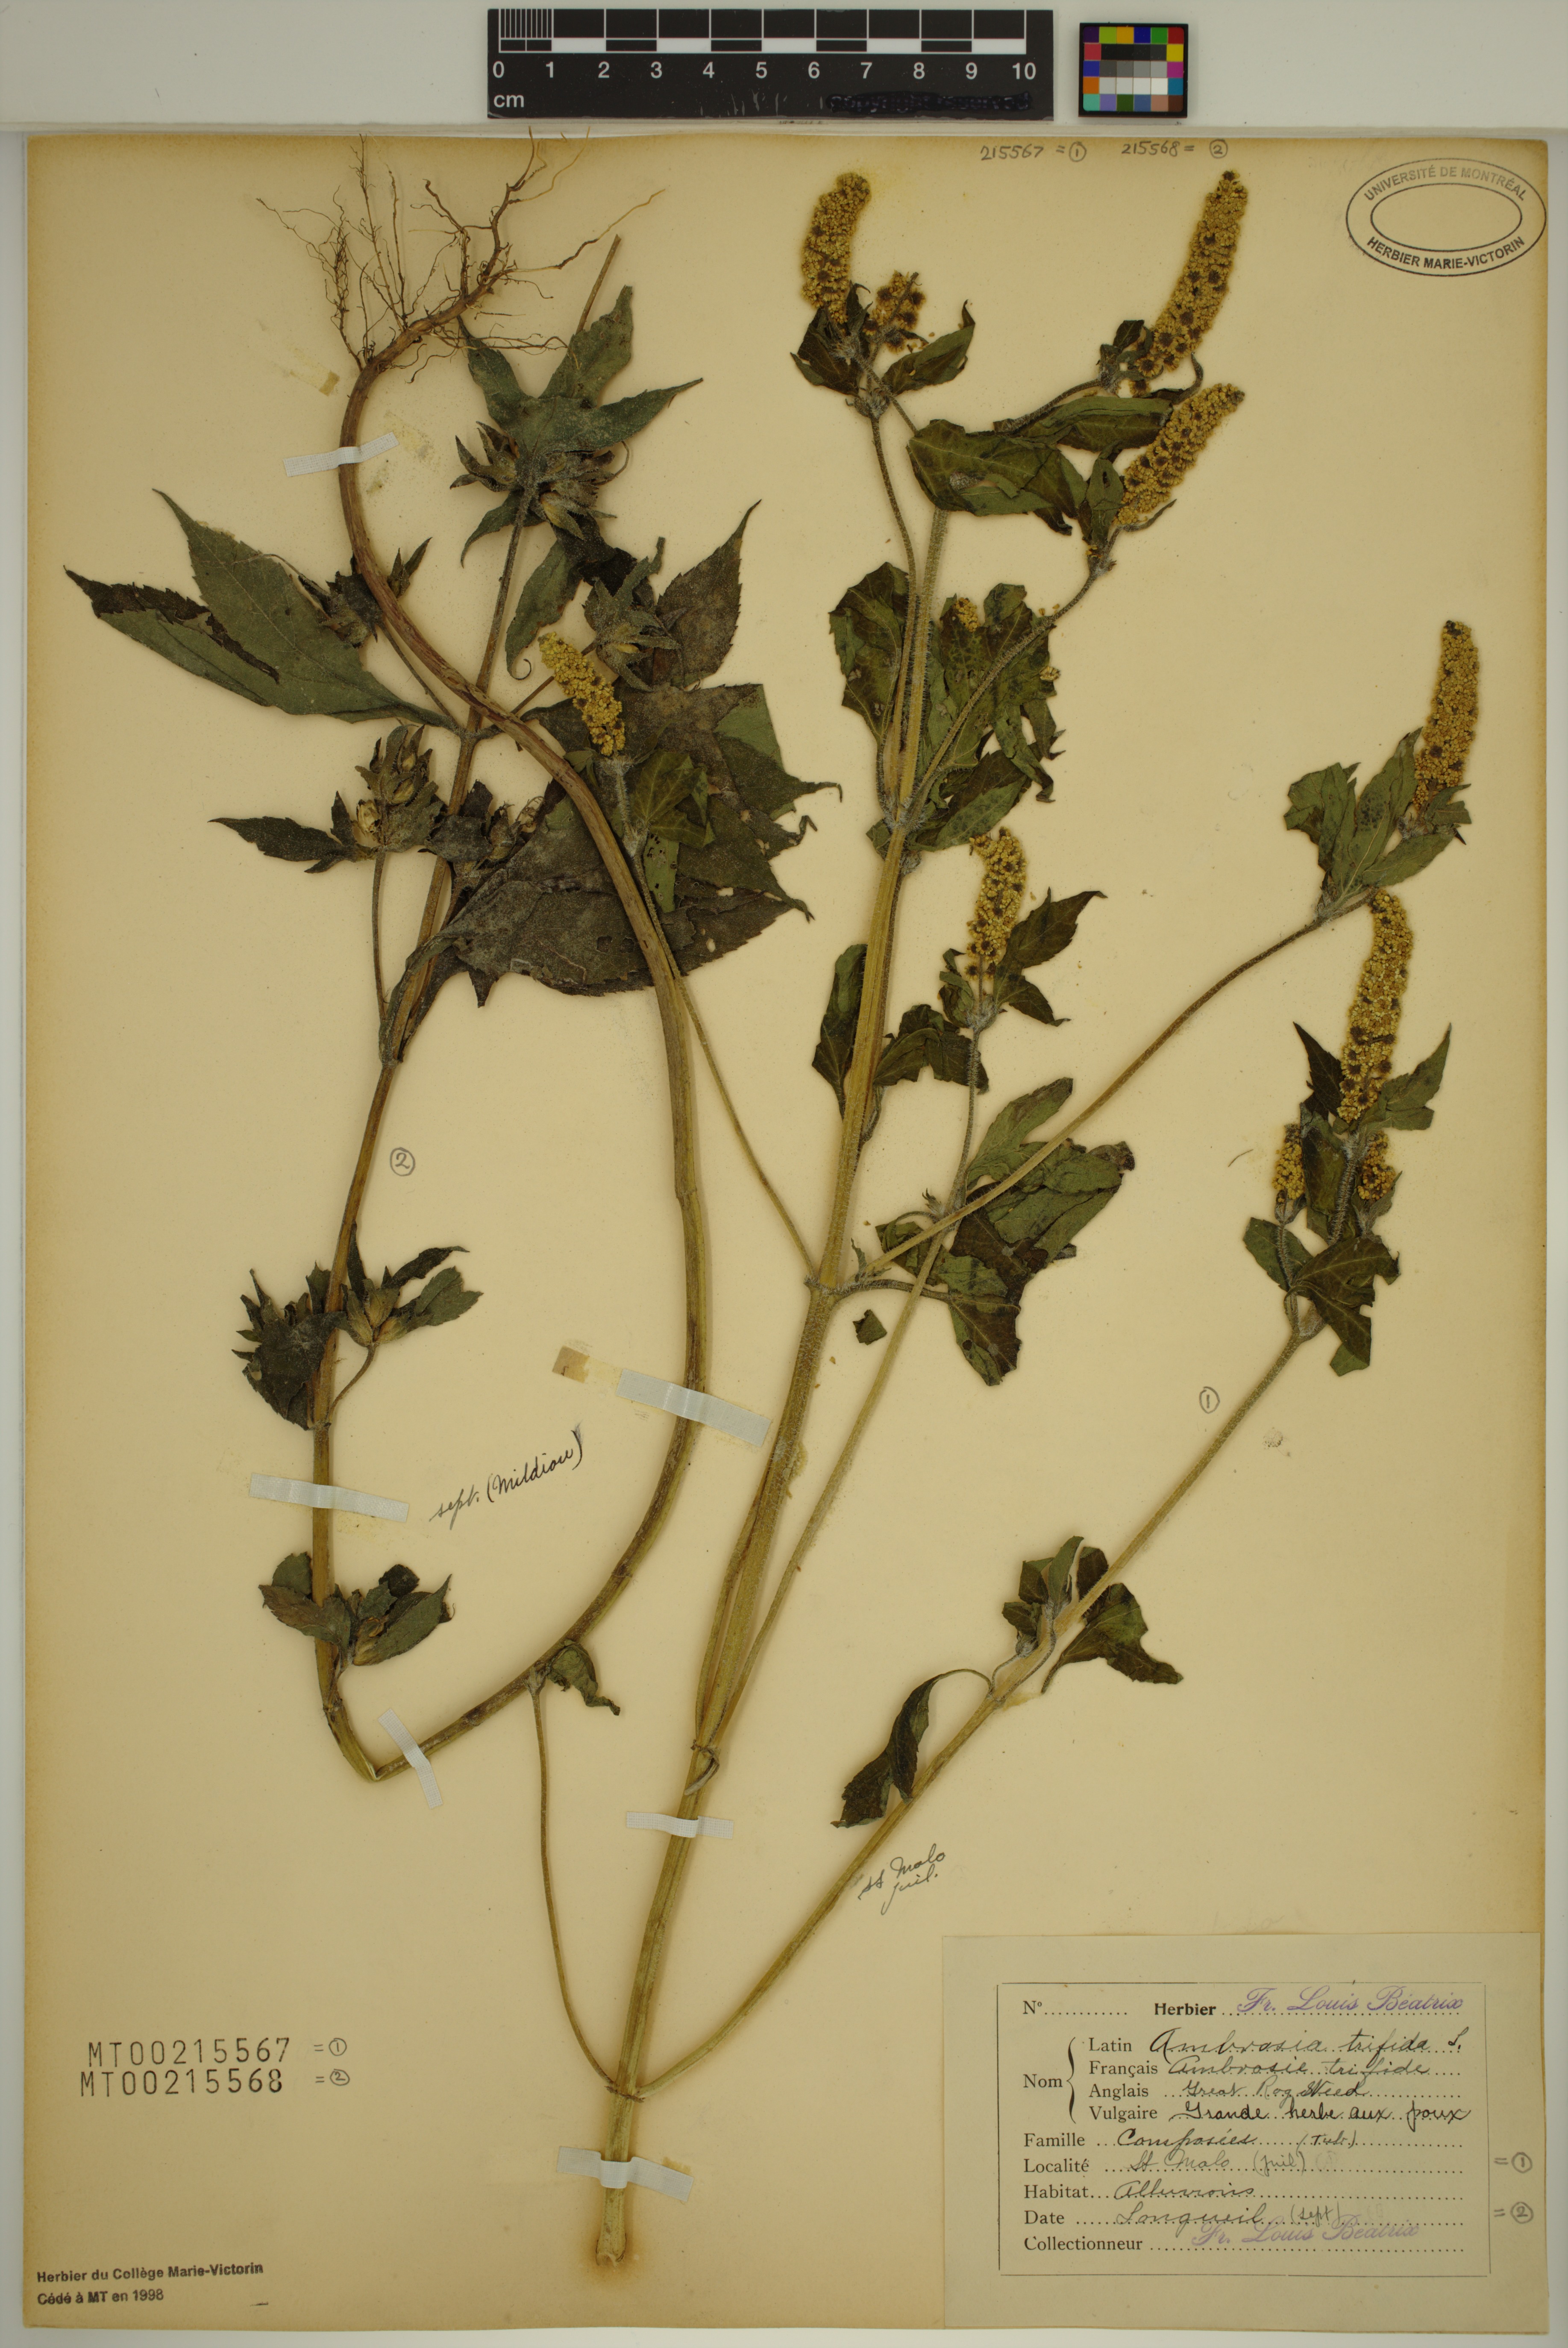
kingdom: Plantae
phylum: Tracheophyta
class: Magnoliopsida
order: Asterales
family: Asteraceae
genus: Ambrosia
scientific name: Ambrosia trifida
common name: Giant ragweed
